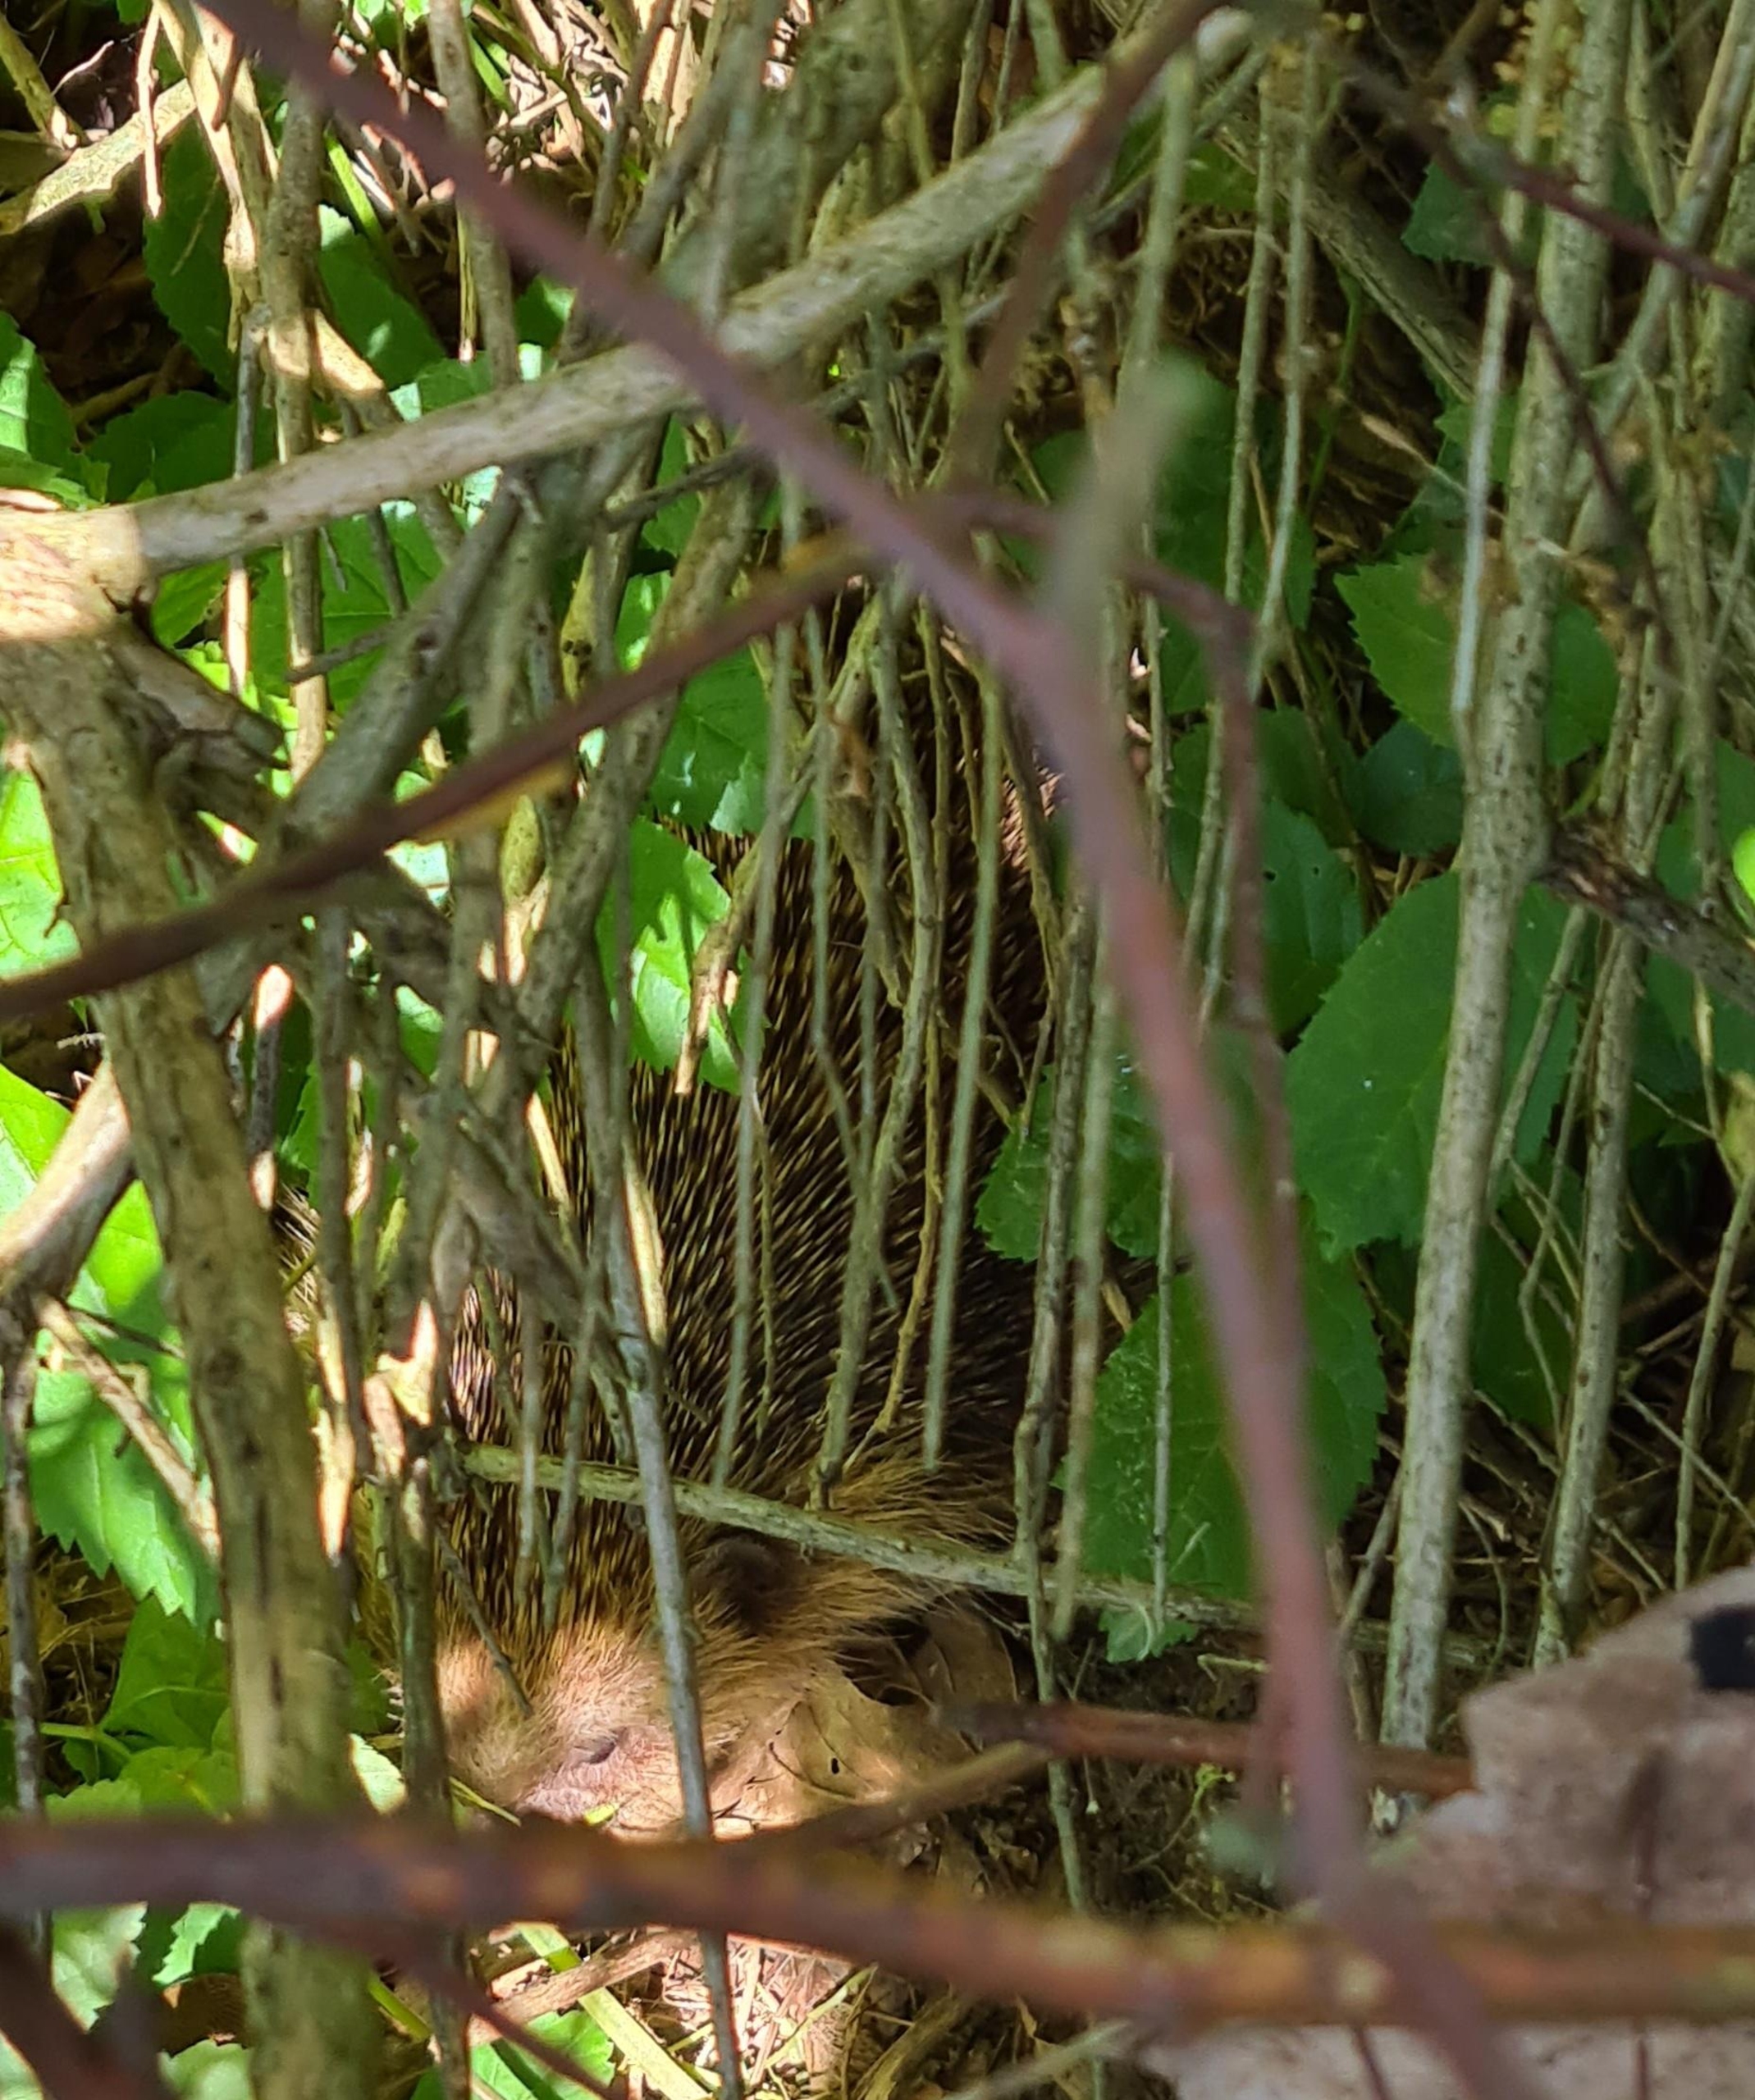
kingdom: Animalia
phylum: Chordata
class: Mammalia
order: Erinaceomorpha
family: Erinaceidae
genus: Erinaceus
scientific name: Erinaceus europaeus
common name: Pindsvin
